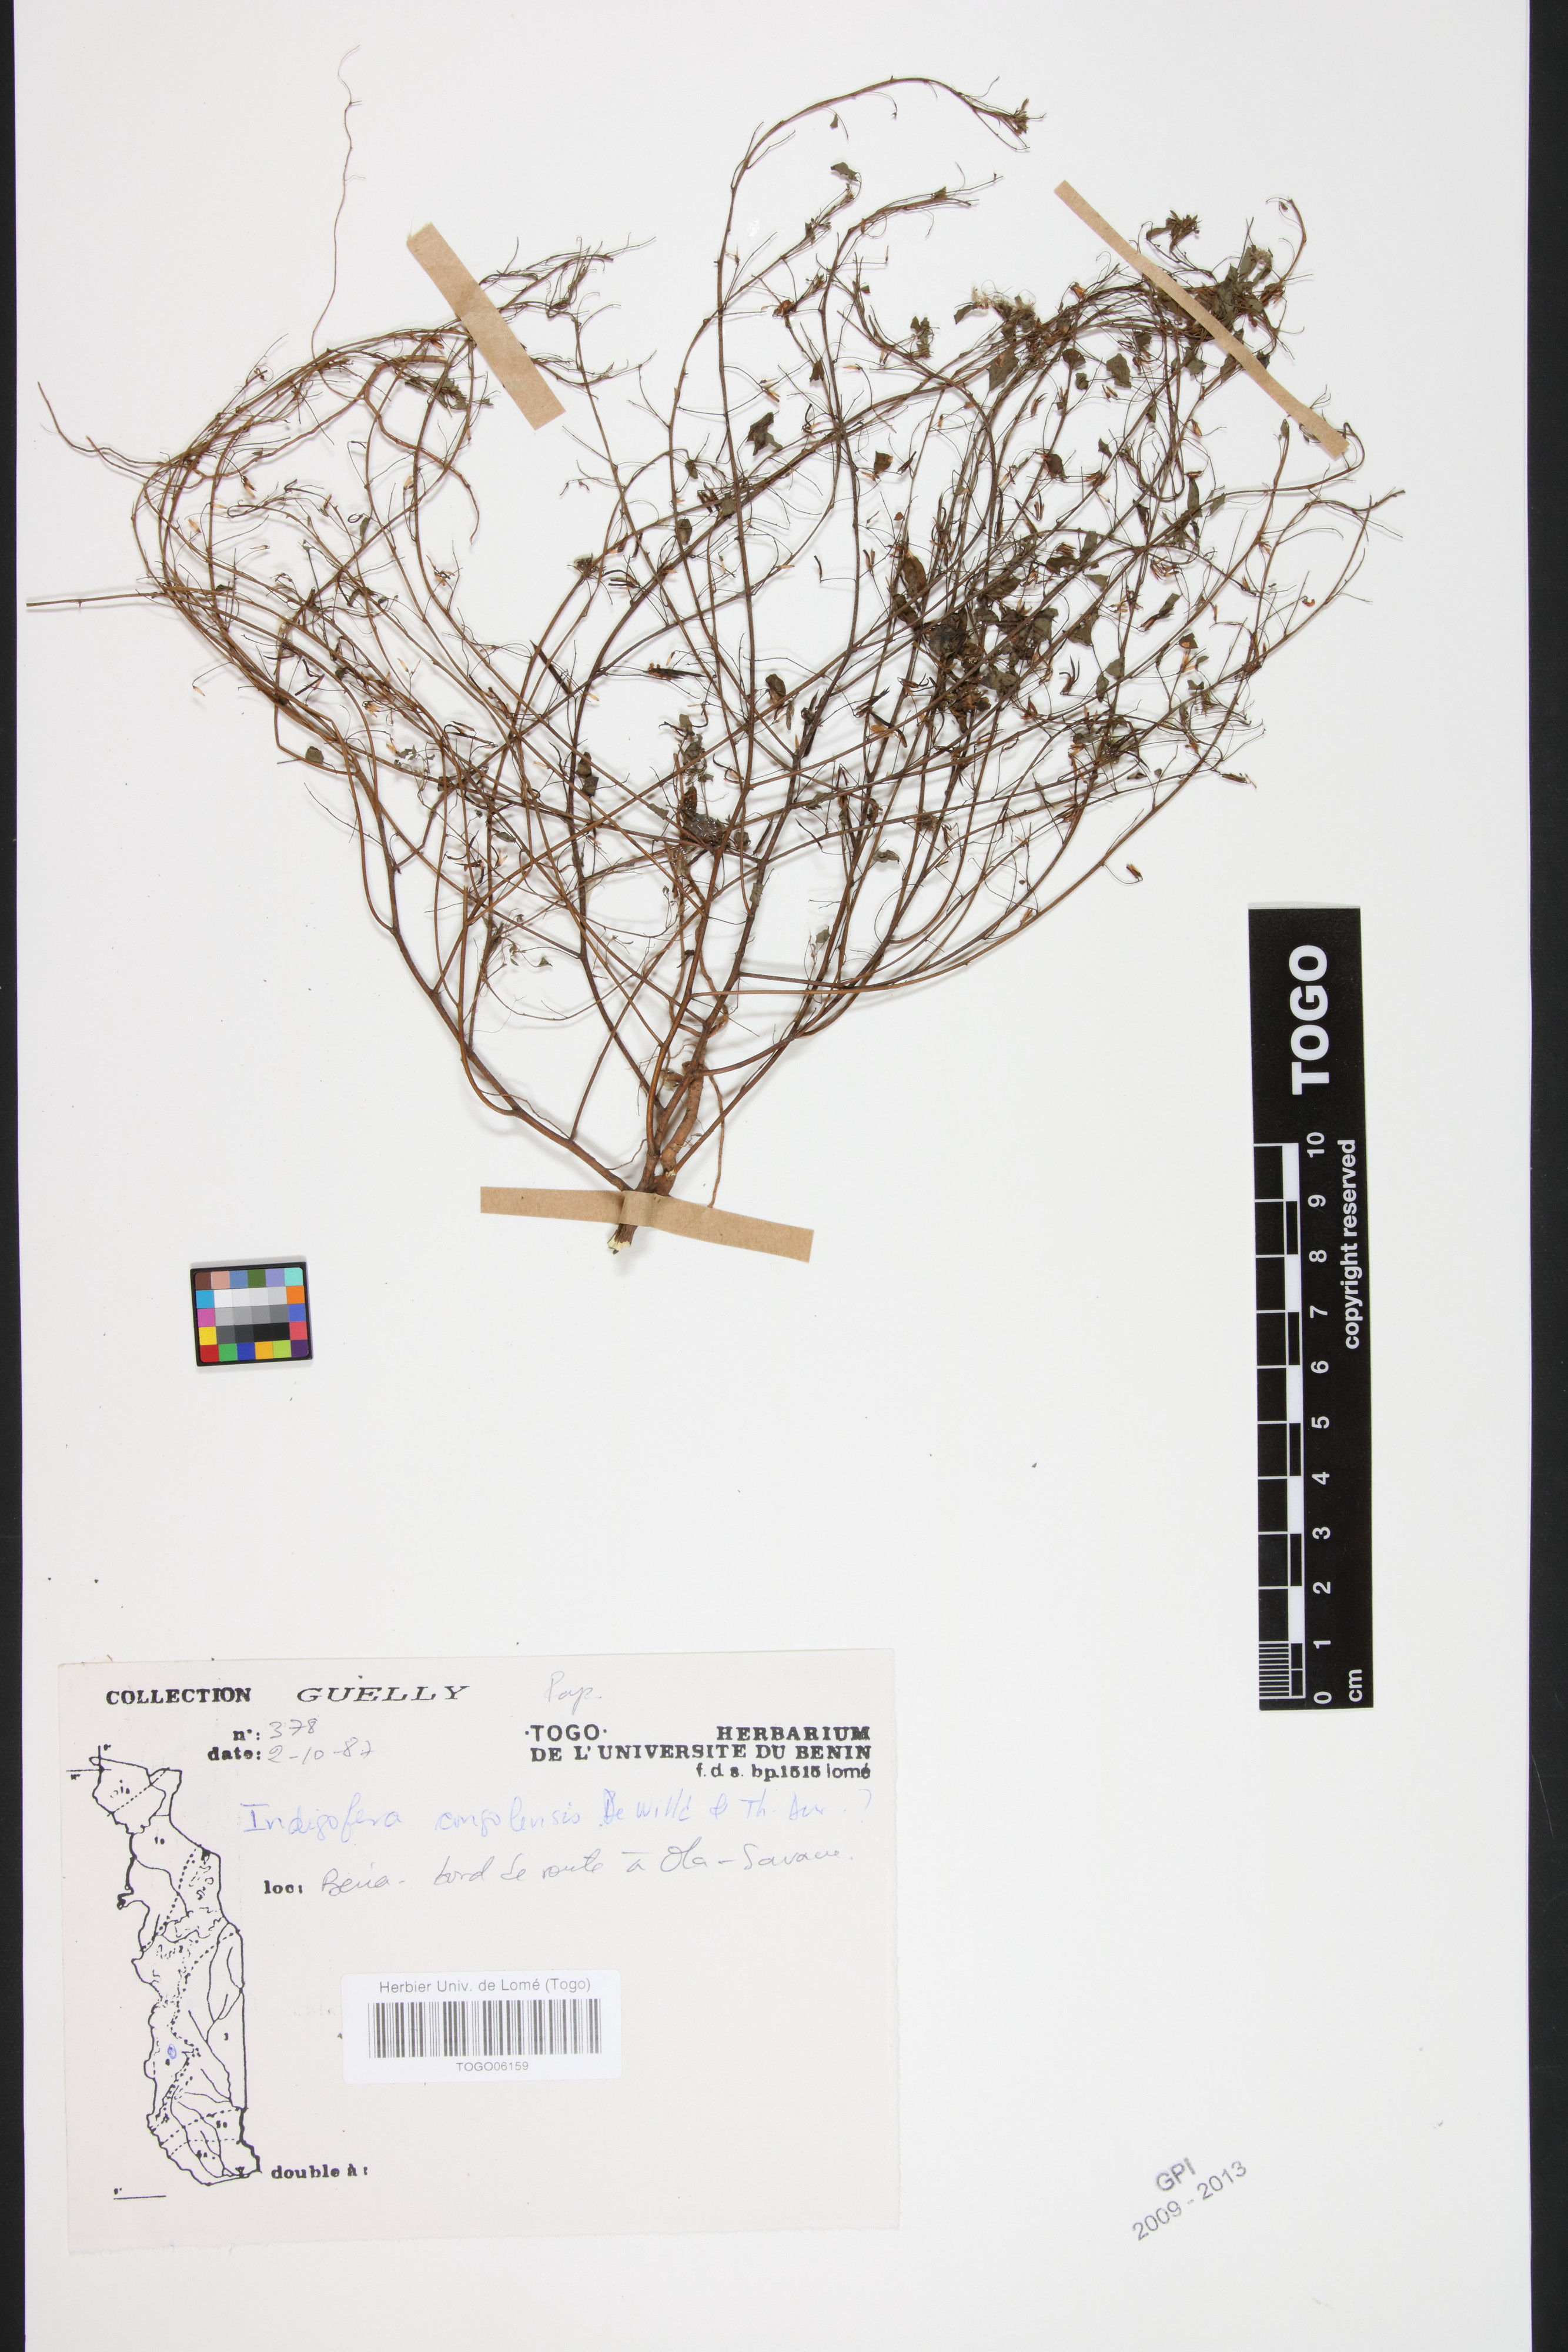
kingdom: Plantae
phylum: Tracheophyta
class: Magnoliopsida
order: Fabales
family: Fabaceae
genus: Indigofera
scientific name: Indigofera congolensis
